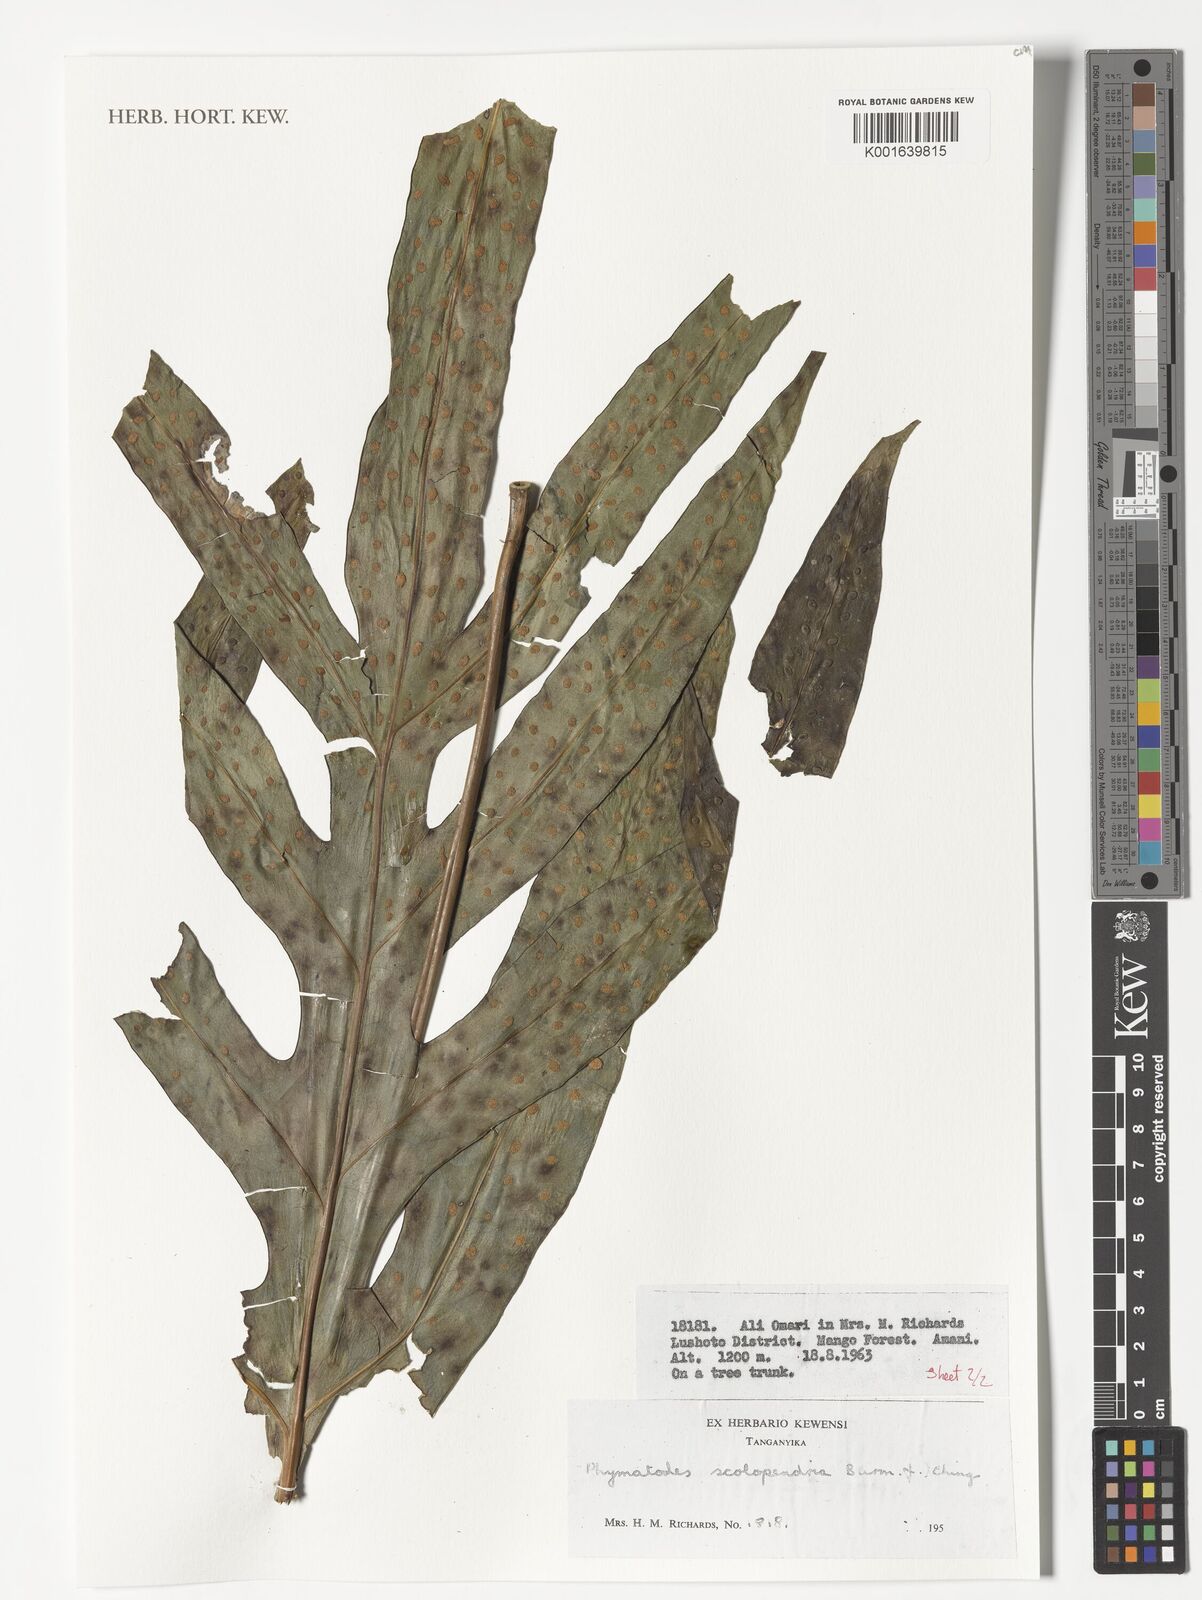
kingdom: Plantae
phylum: Tracheophyta
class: Polypodiopsida
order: Polypodiales
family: Polypodiaceae
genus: Microsorum
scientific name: Microsorum scolopendria
